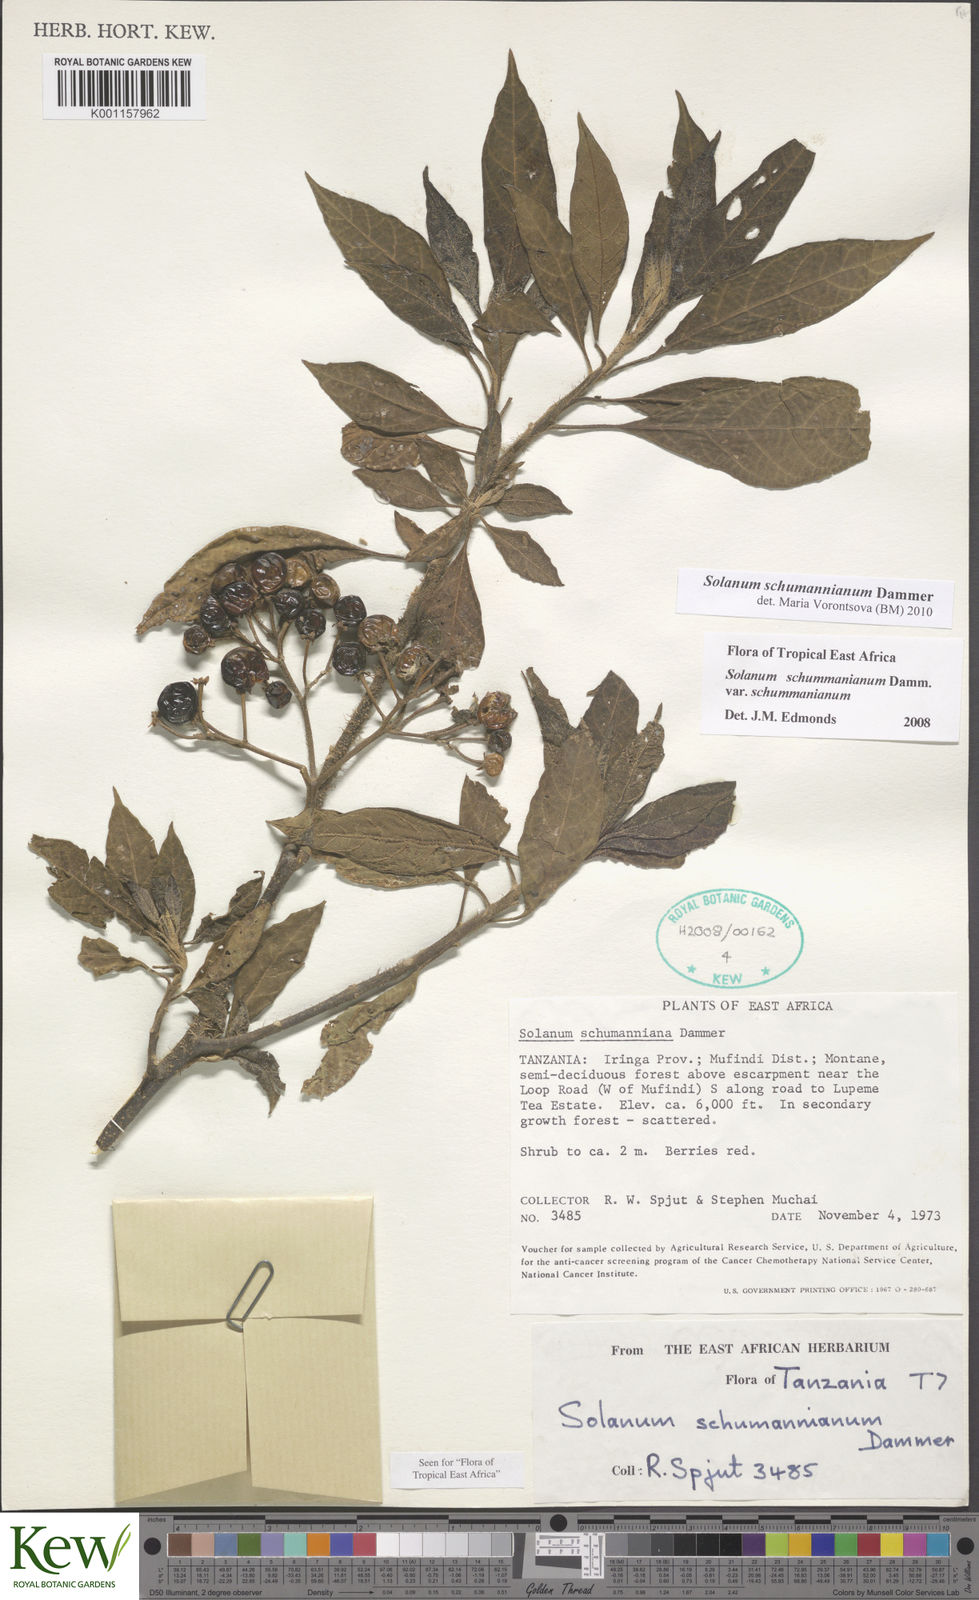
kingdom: Plantae
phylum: Tracheophyta
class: Magnoliopsida
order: Solanales
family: Solanaceae
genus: Solanum
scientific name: Solanum schumannianum
